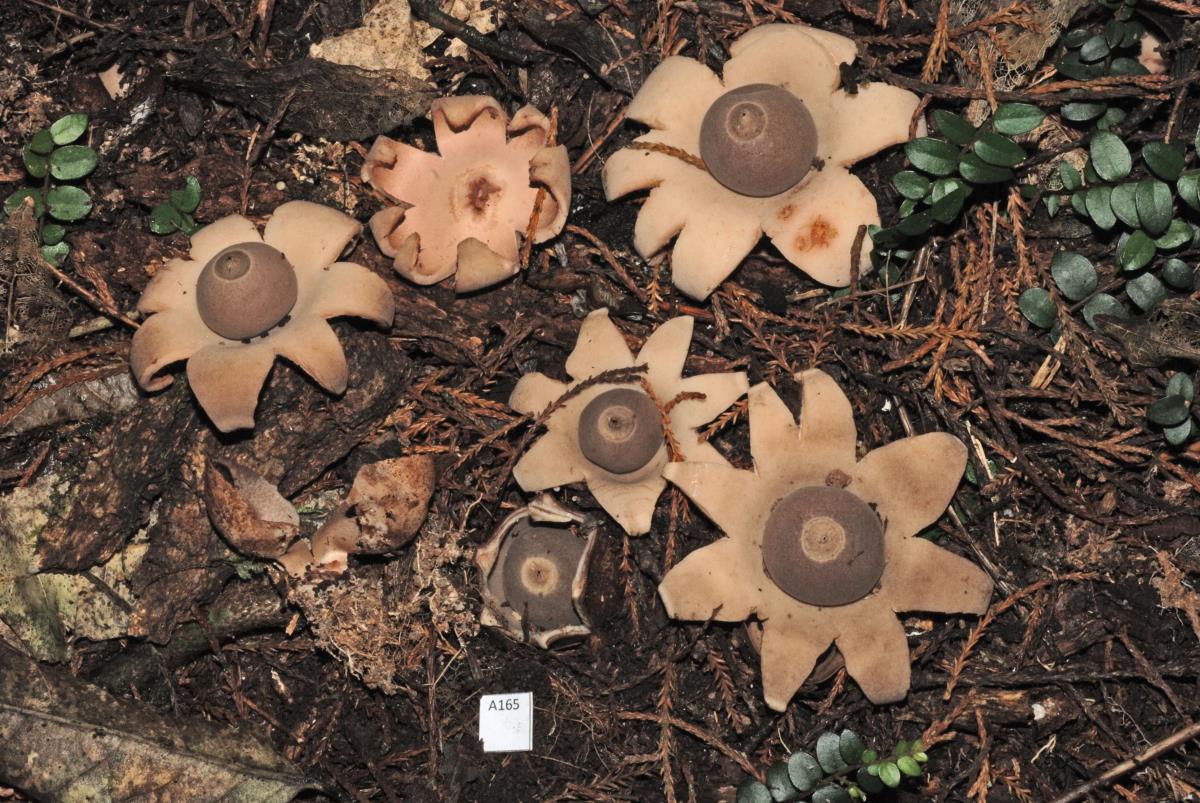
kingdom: Fungi
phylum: Basidiomycota
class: Agaricomycetes
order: Geastrales
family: Geastraceae
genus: Geastrum
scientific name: Geastrum velutinum
